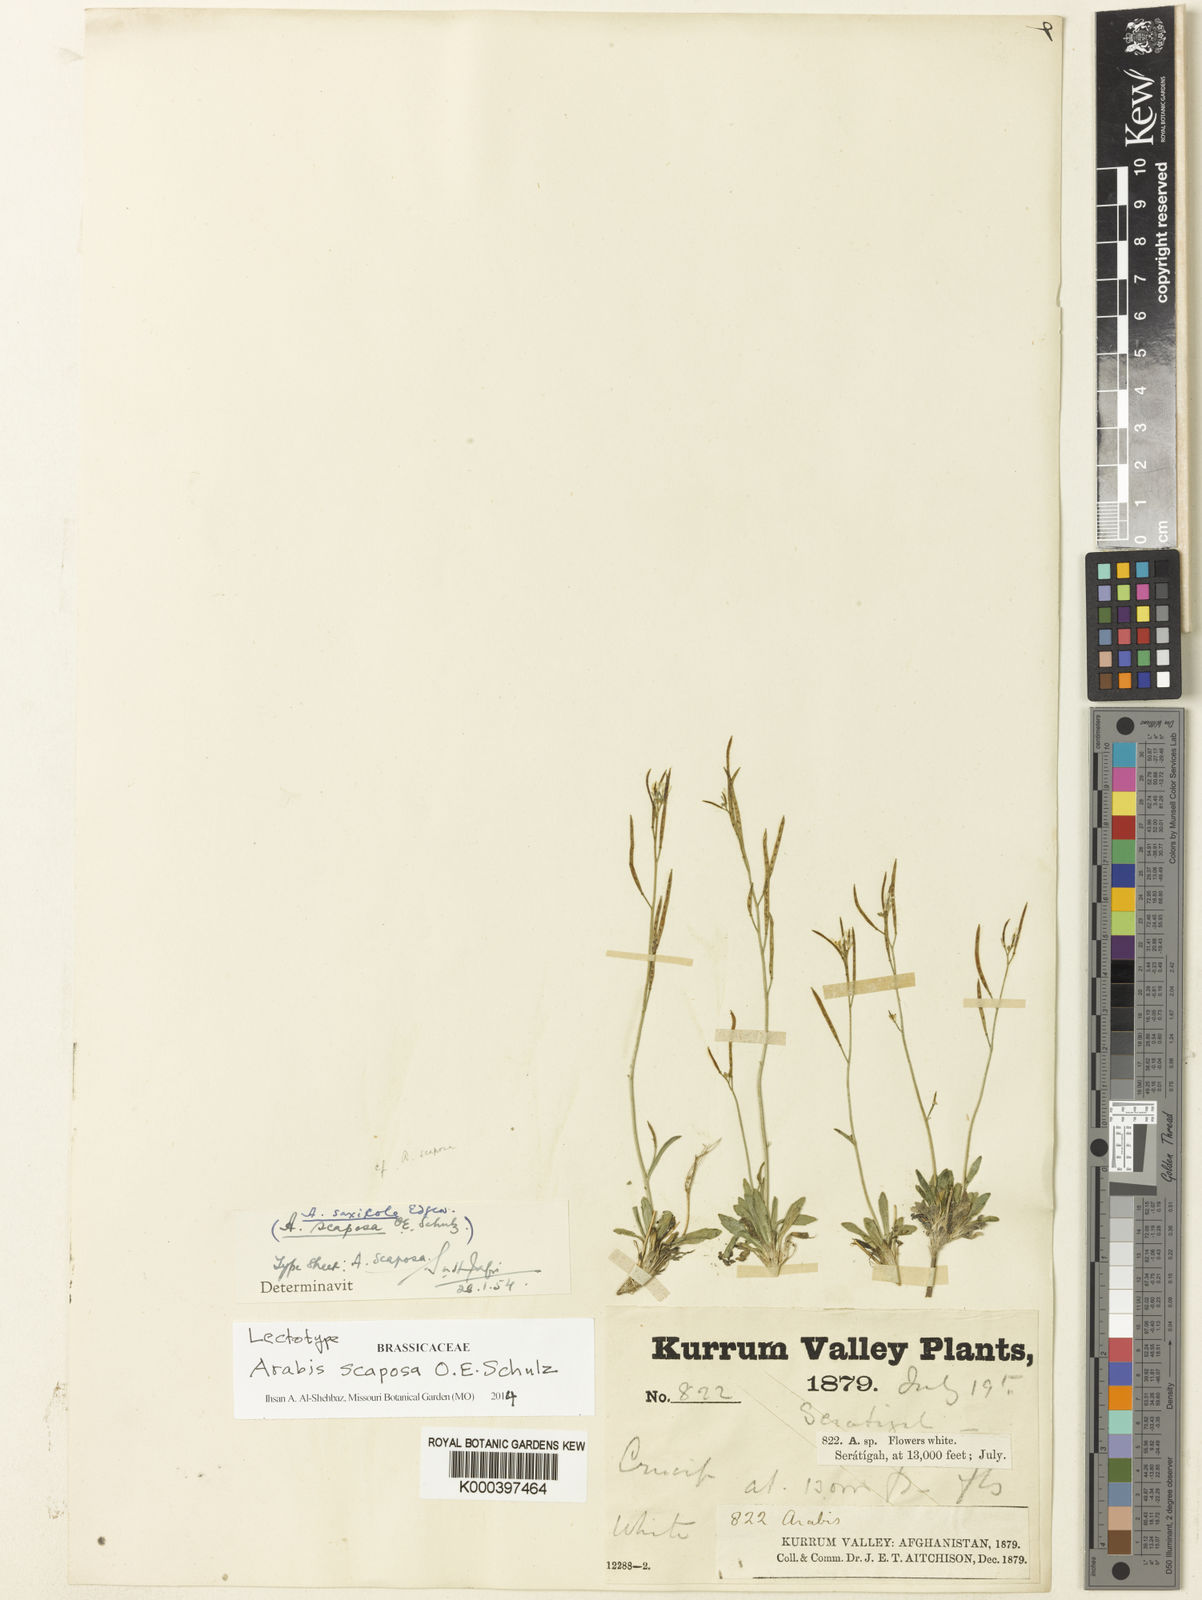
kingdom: Plantae
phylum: Tracheophyta
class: Magnoliopsida
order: Brassicales
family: Brassicaceae
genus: Scapiarabis
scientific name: Scapiarabis saxicola
